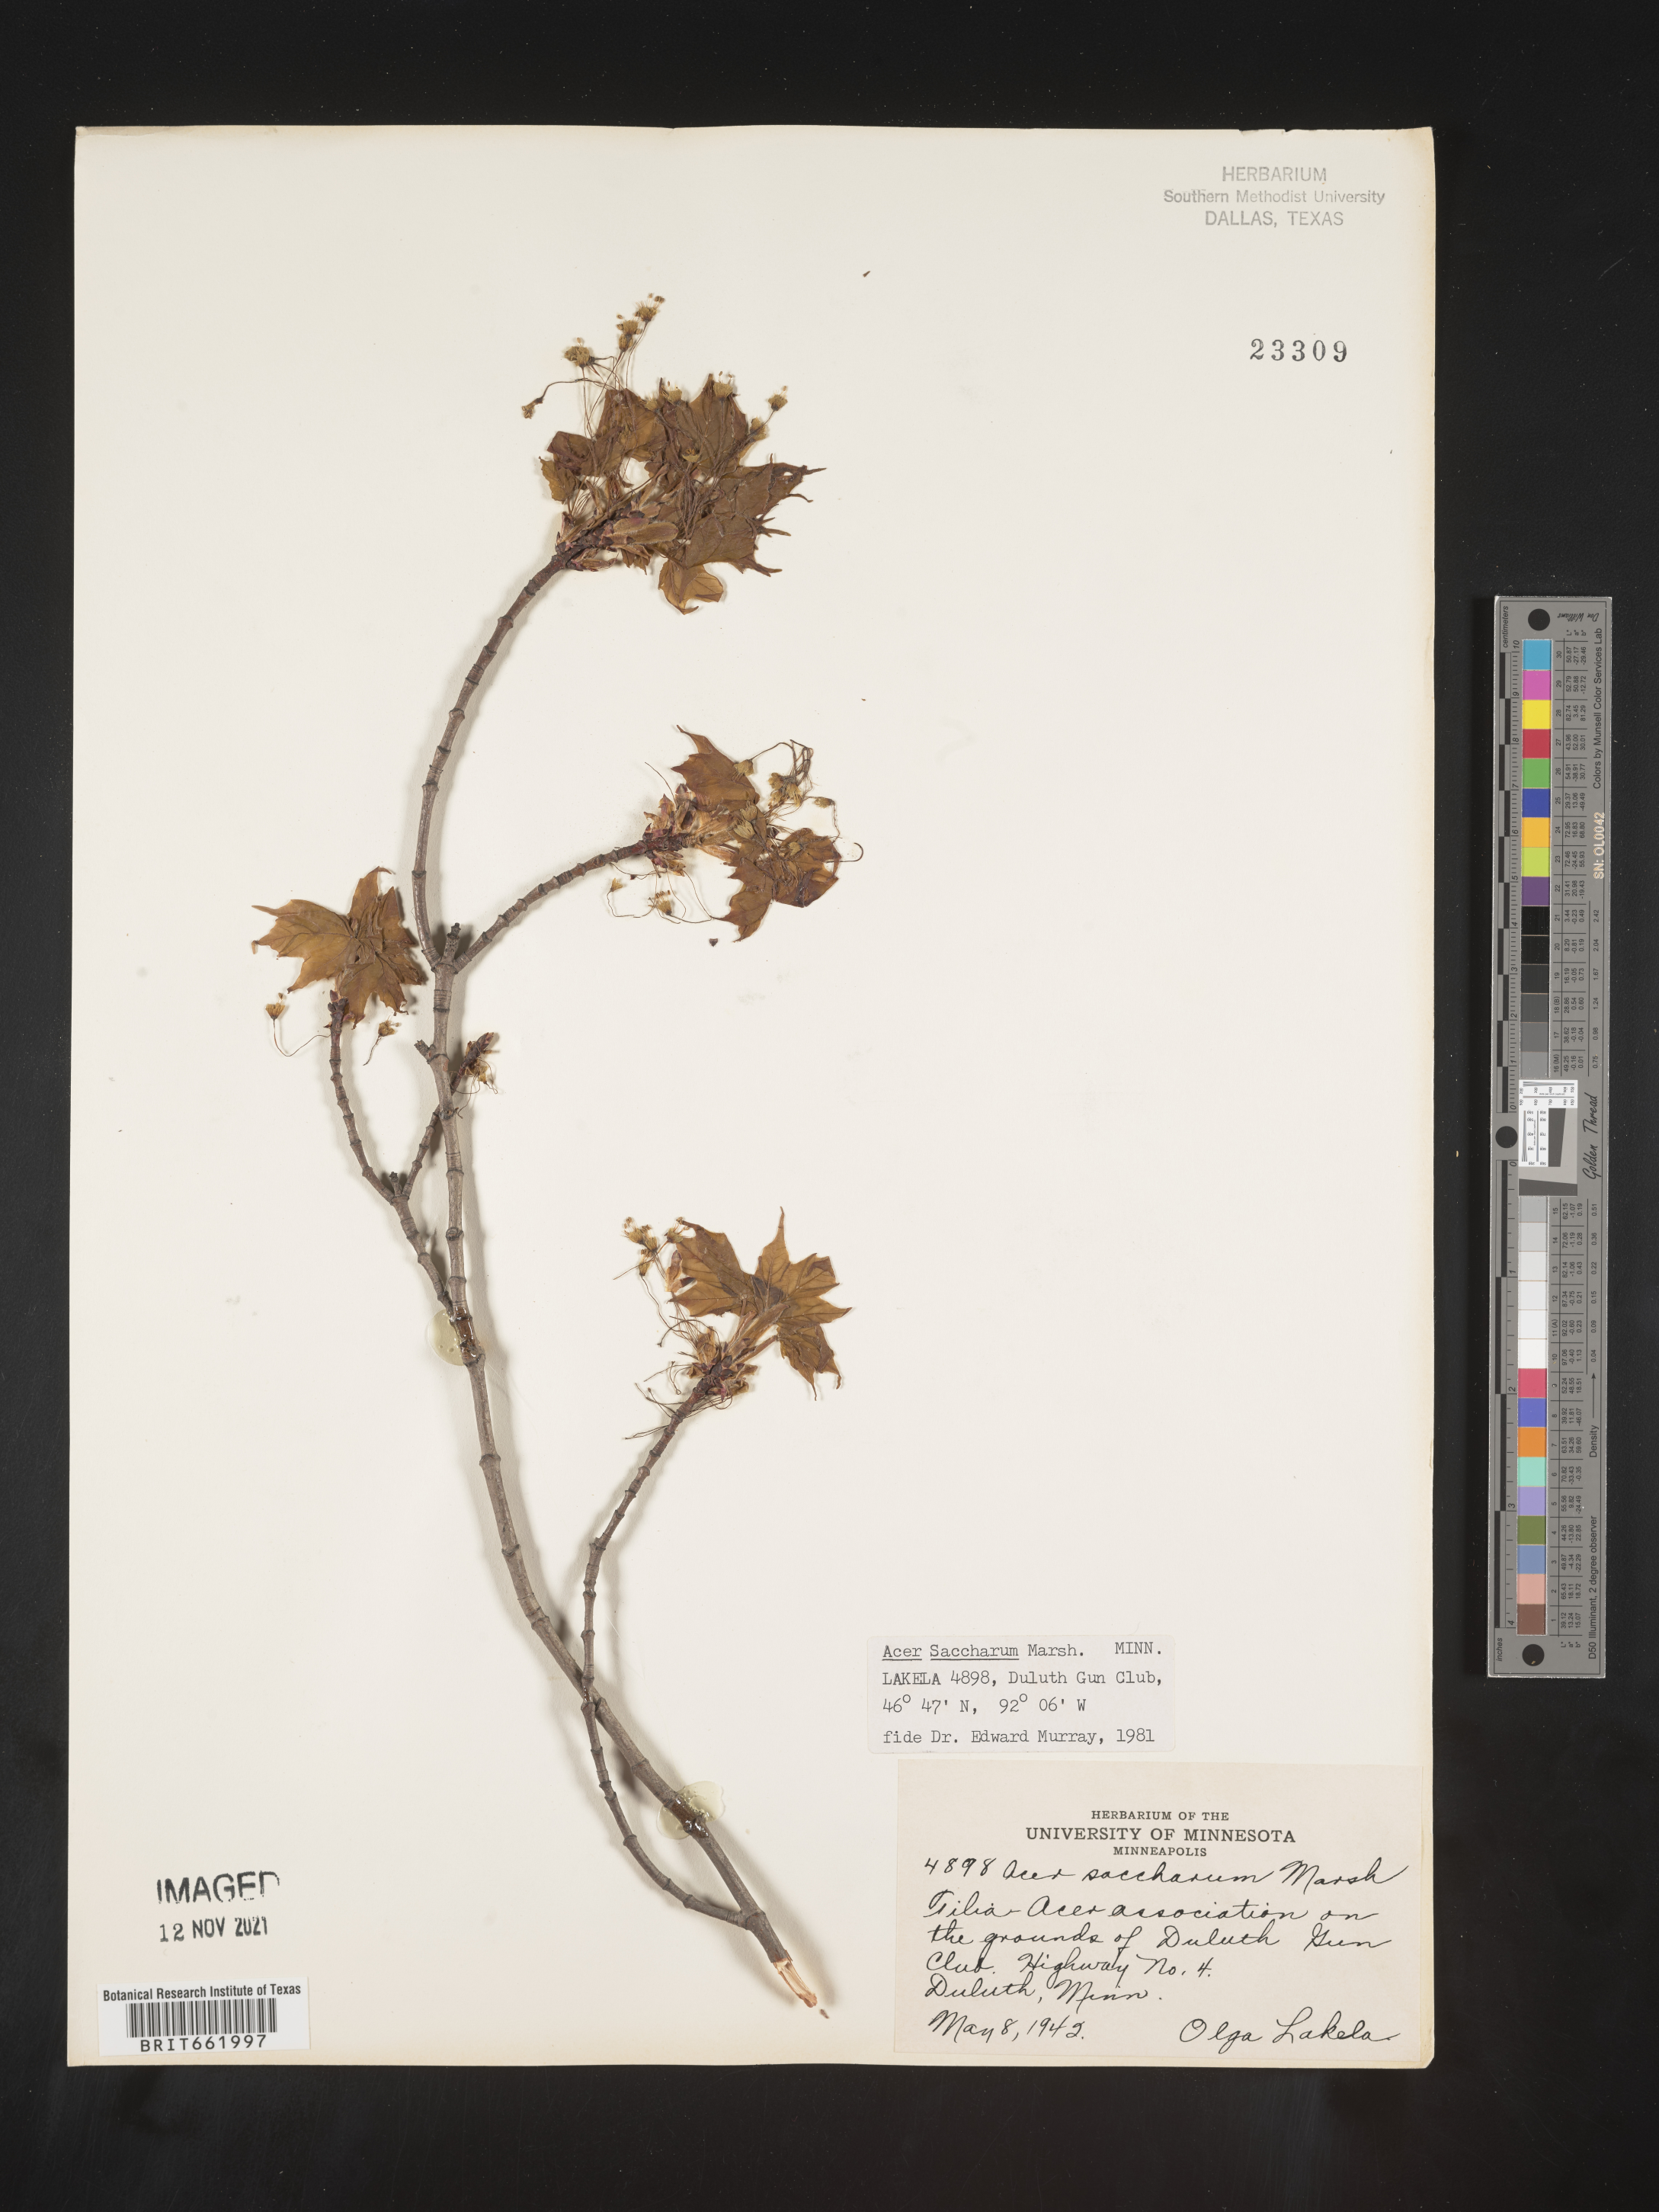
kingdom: Plantae
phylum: Tracheophyta
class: Magnoliopsida
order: Sapindales
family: Sapindaceae
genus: Acer
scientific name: Acer saccharum
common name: Sugar maple
